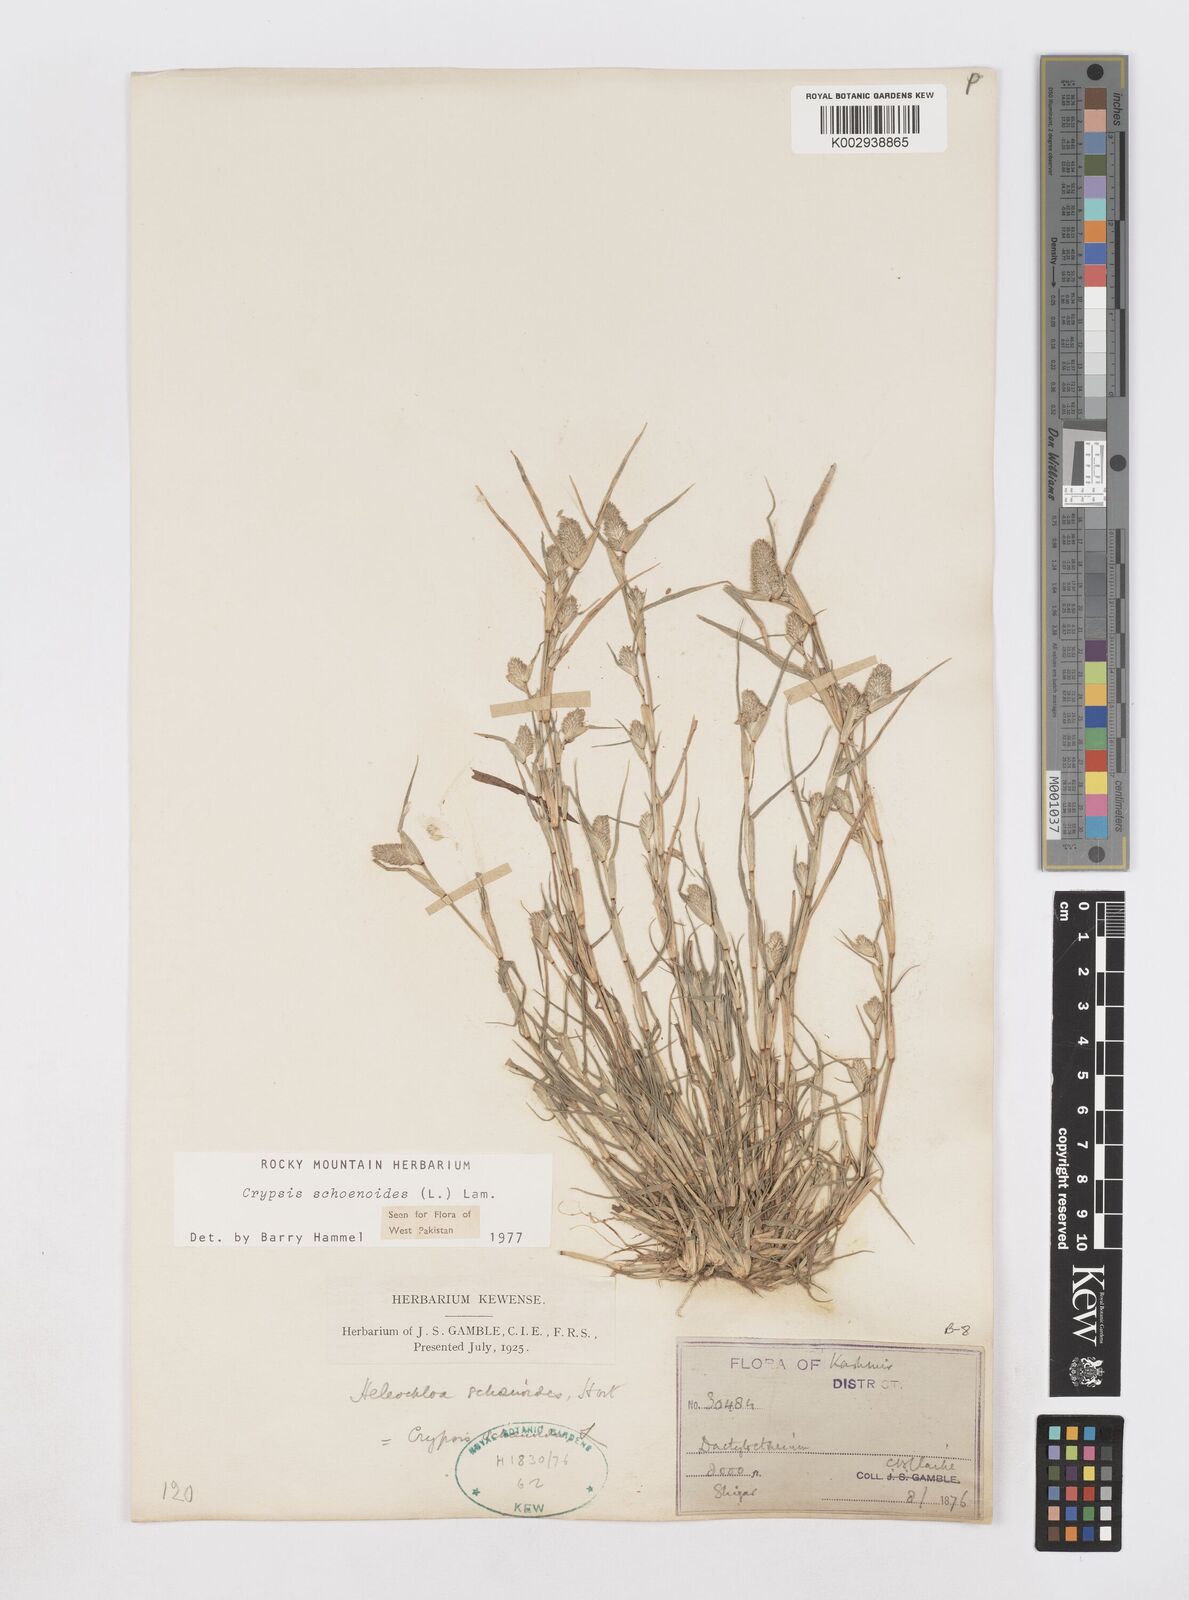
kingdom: Plantae
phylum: Tracheophyta
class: Liliopsida
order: Poales
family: Poaceae
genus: Sporobolus
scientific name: Sporobolus schoenoides
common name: Rush-like timothy
